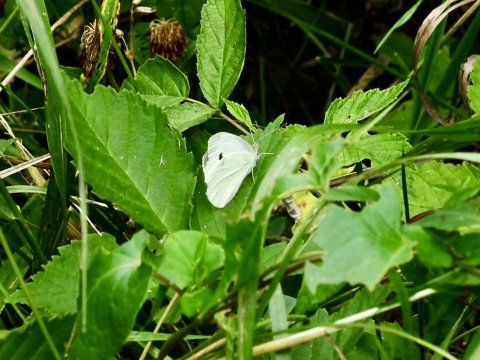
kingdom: Animalia
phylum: Arthropoda
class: Insecta
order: Lepidoptera
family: Pieridae
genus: Pieris
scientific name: Pieris rapae
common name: Cabbage White
